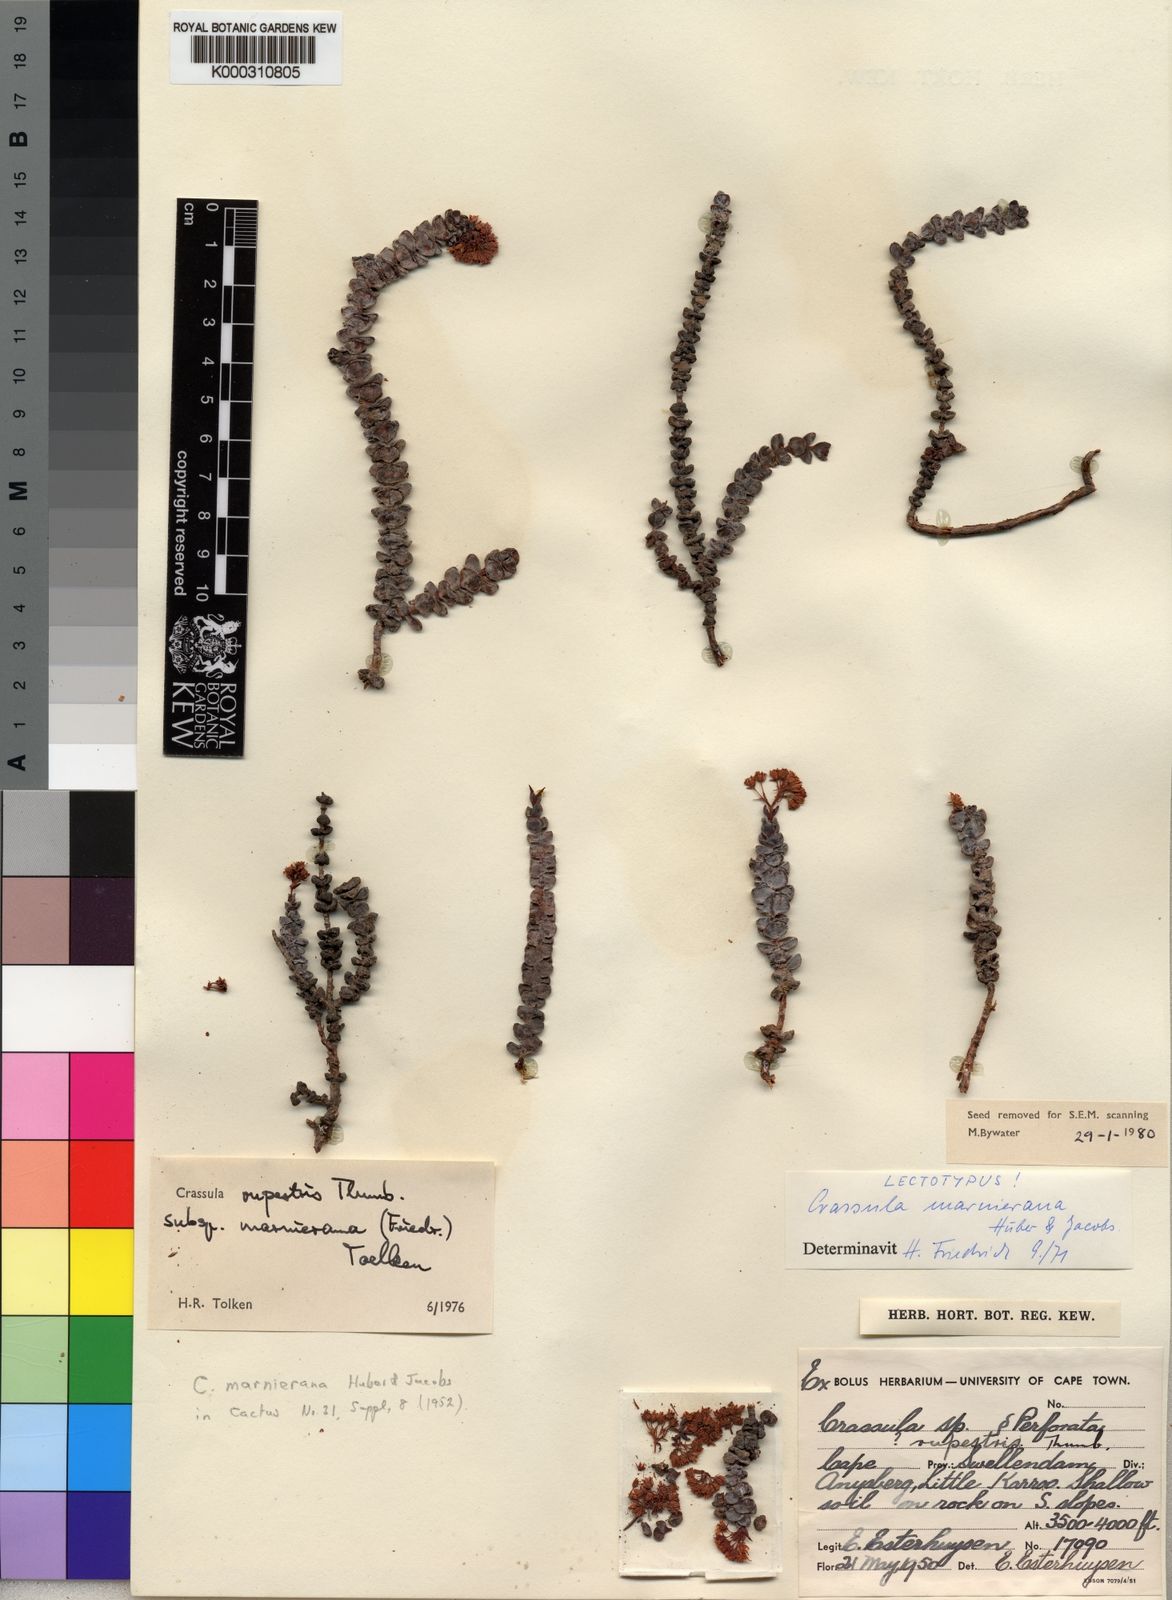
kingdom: Plantae
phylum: Tracheophyta
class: Magnoliopsida
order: Saxifragales
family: Crassulaceae
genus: Crassula
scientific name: Crassula rupestris
